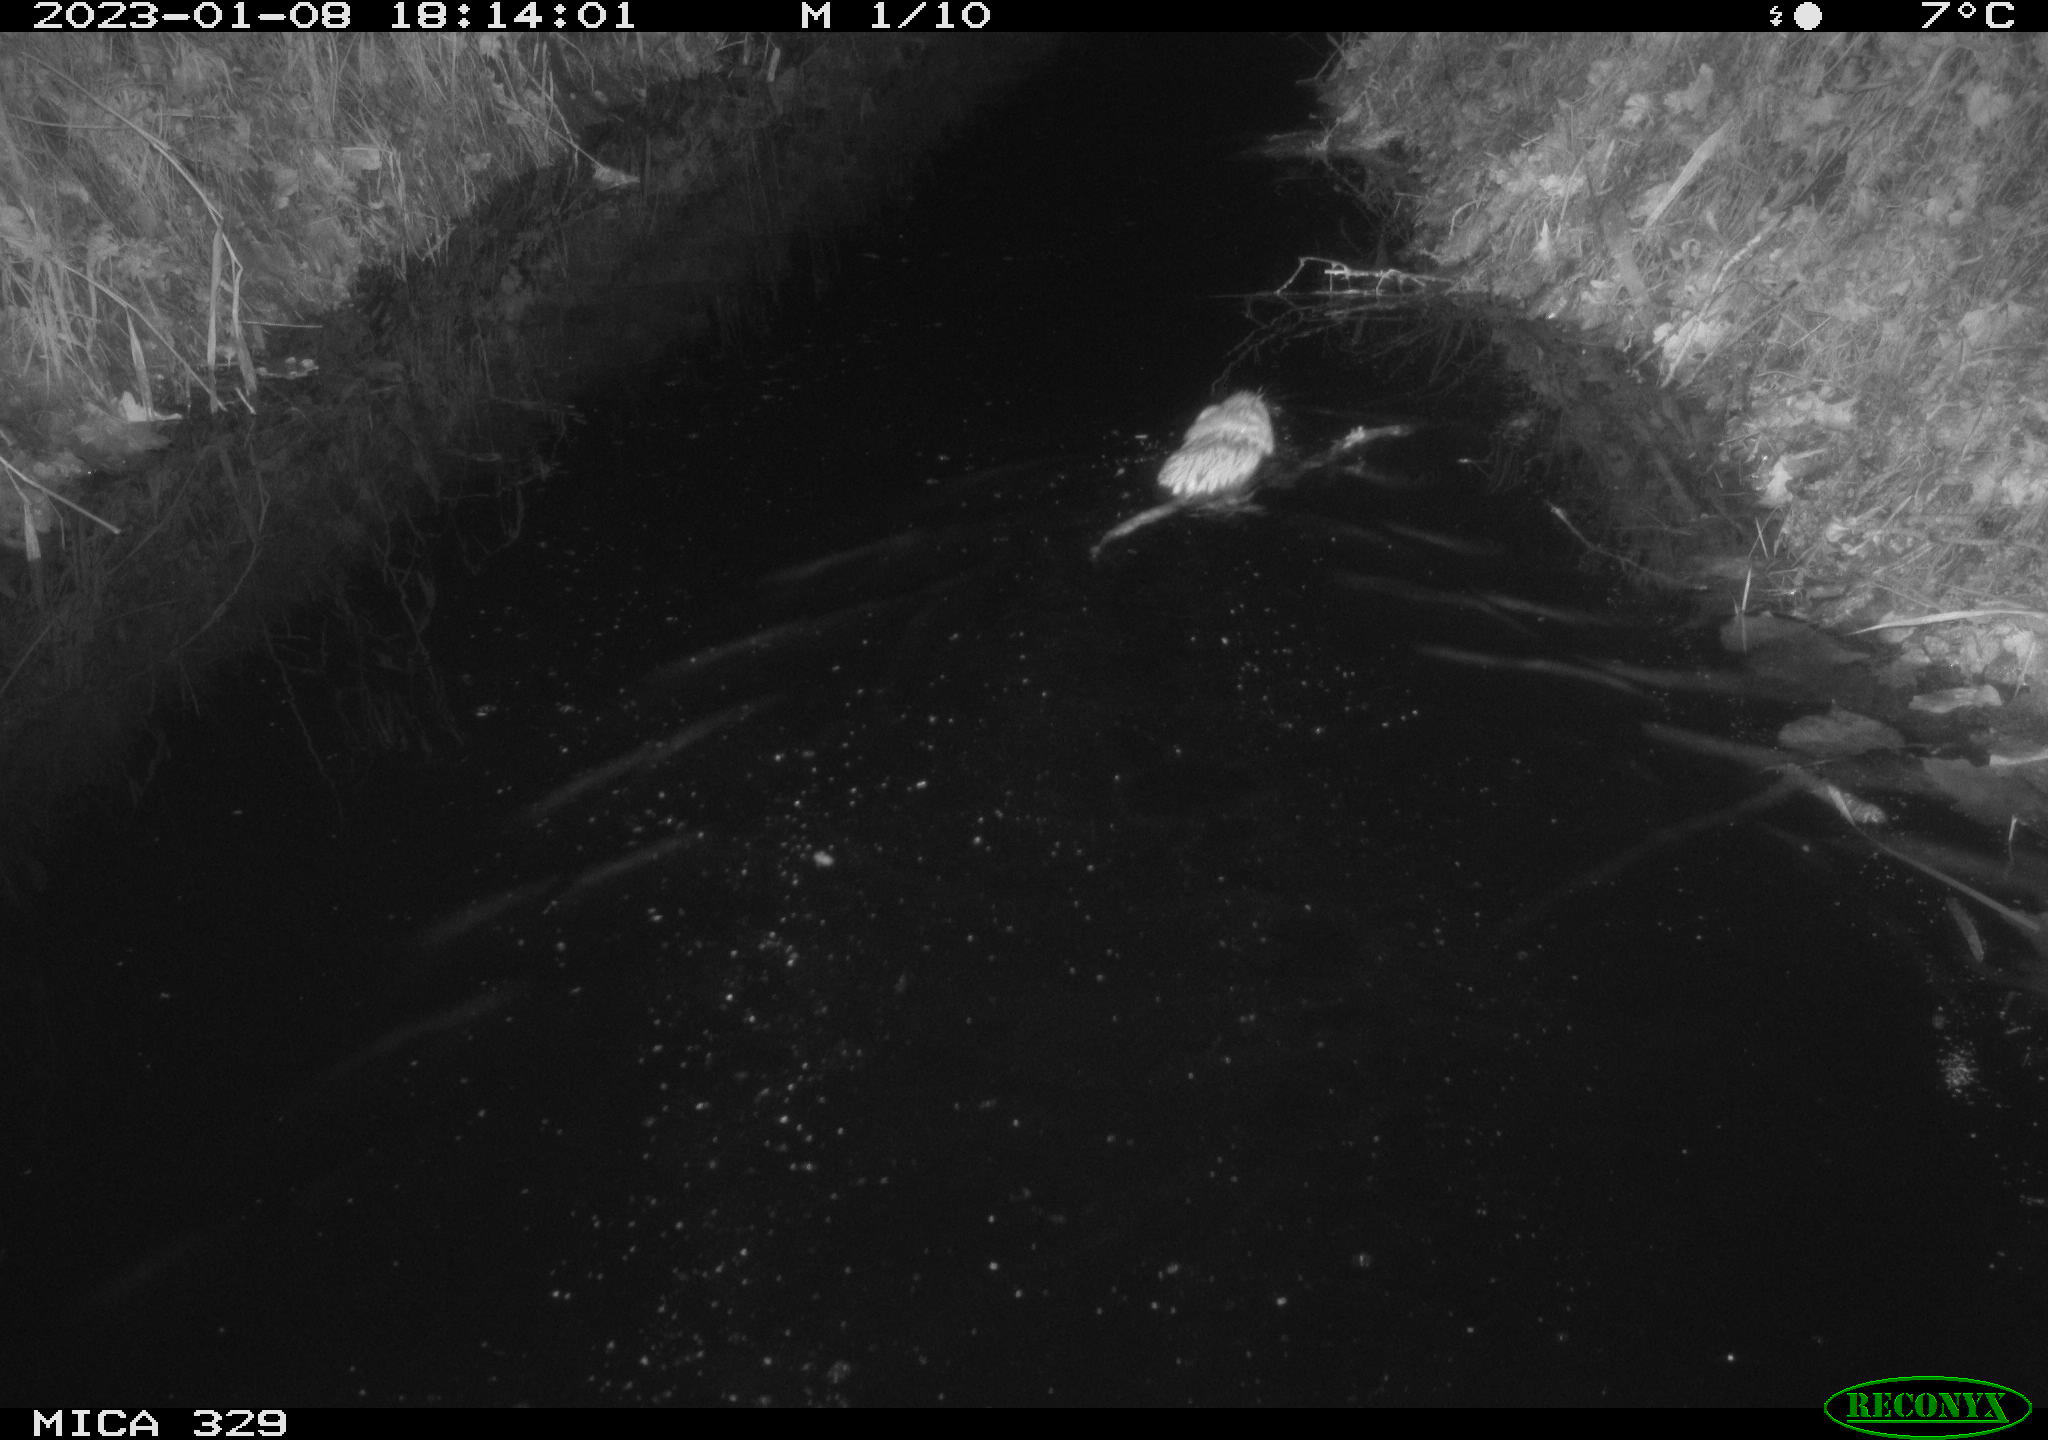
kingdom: Animalia
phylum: Chordata
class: Mammalia
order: Rodentia
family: Cricetidae
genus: Ondatra
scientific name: Ondatra zibethicus
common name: Muskrat
